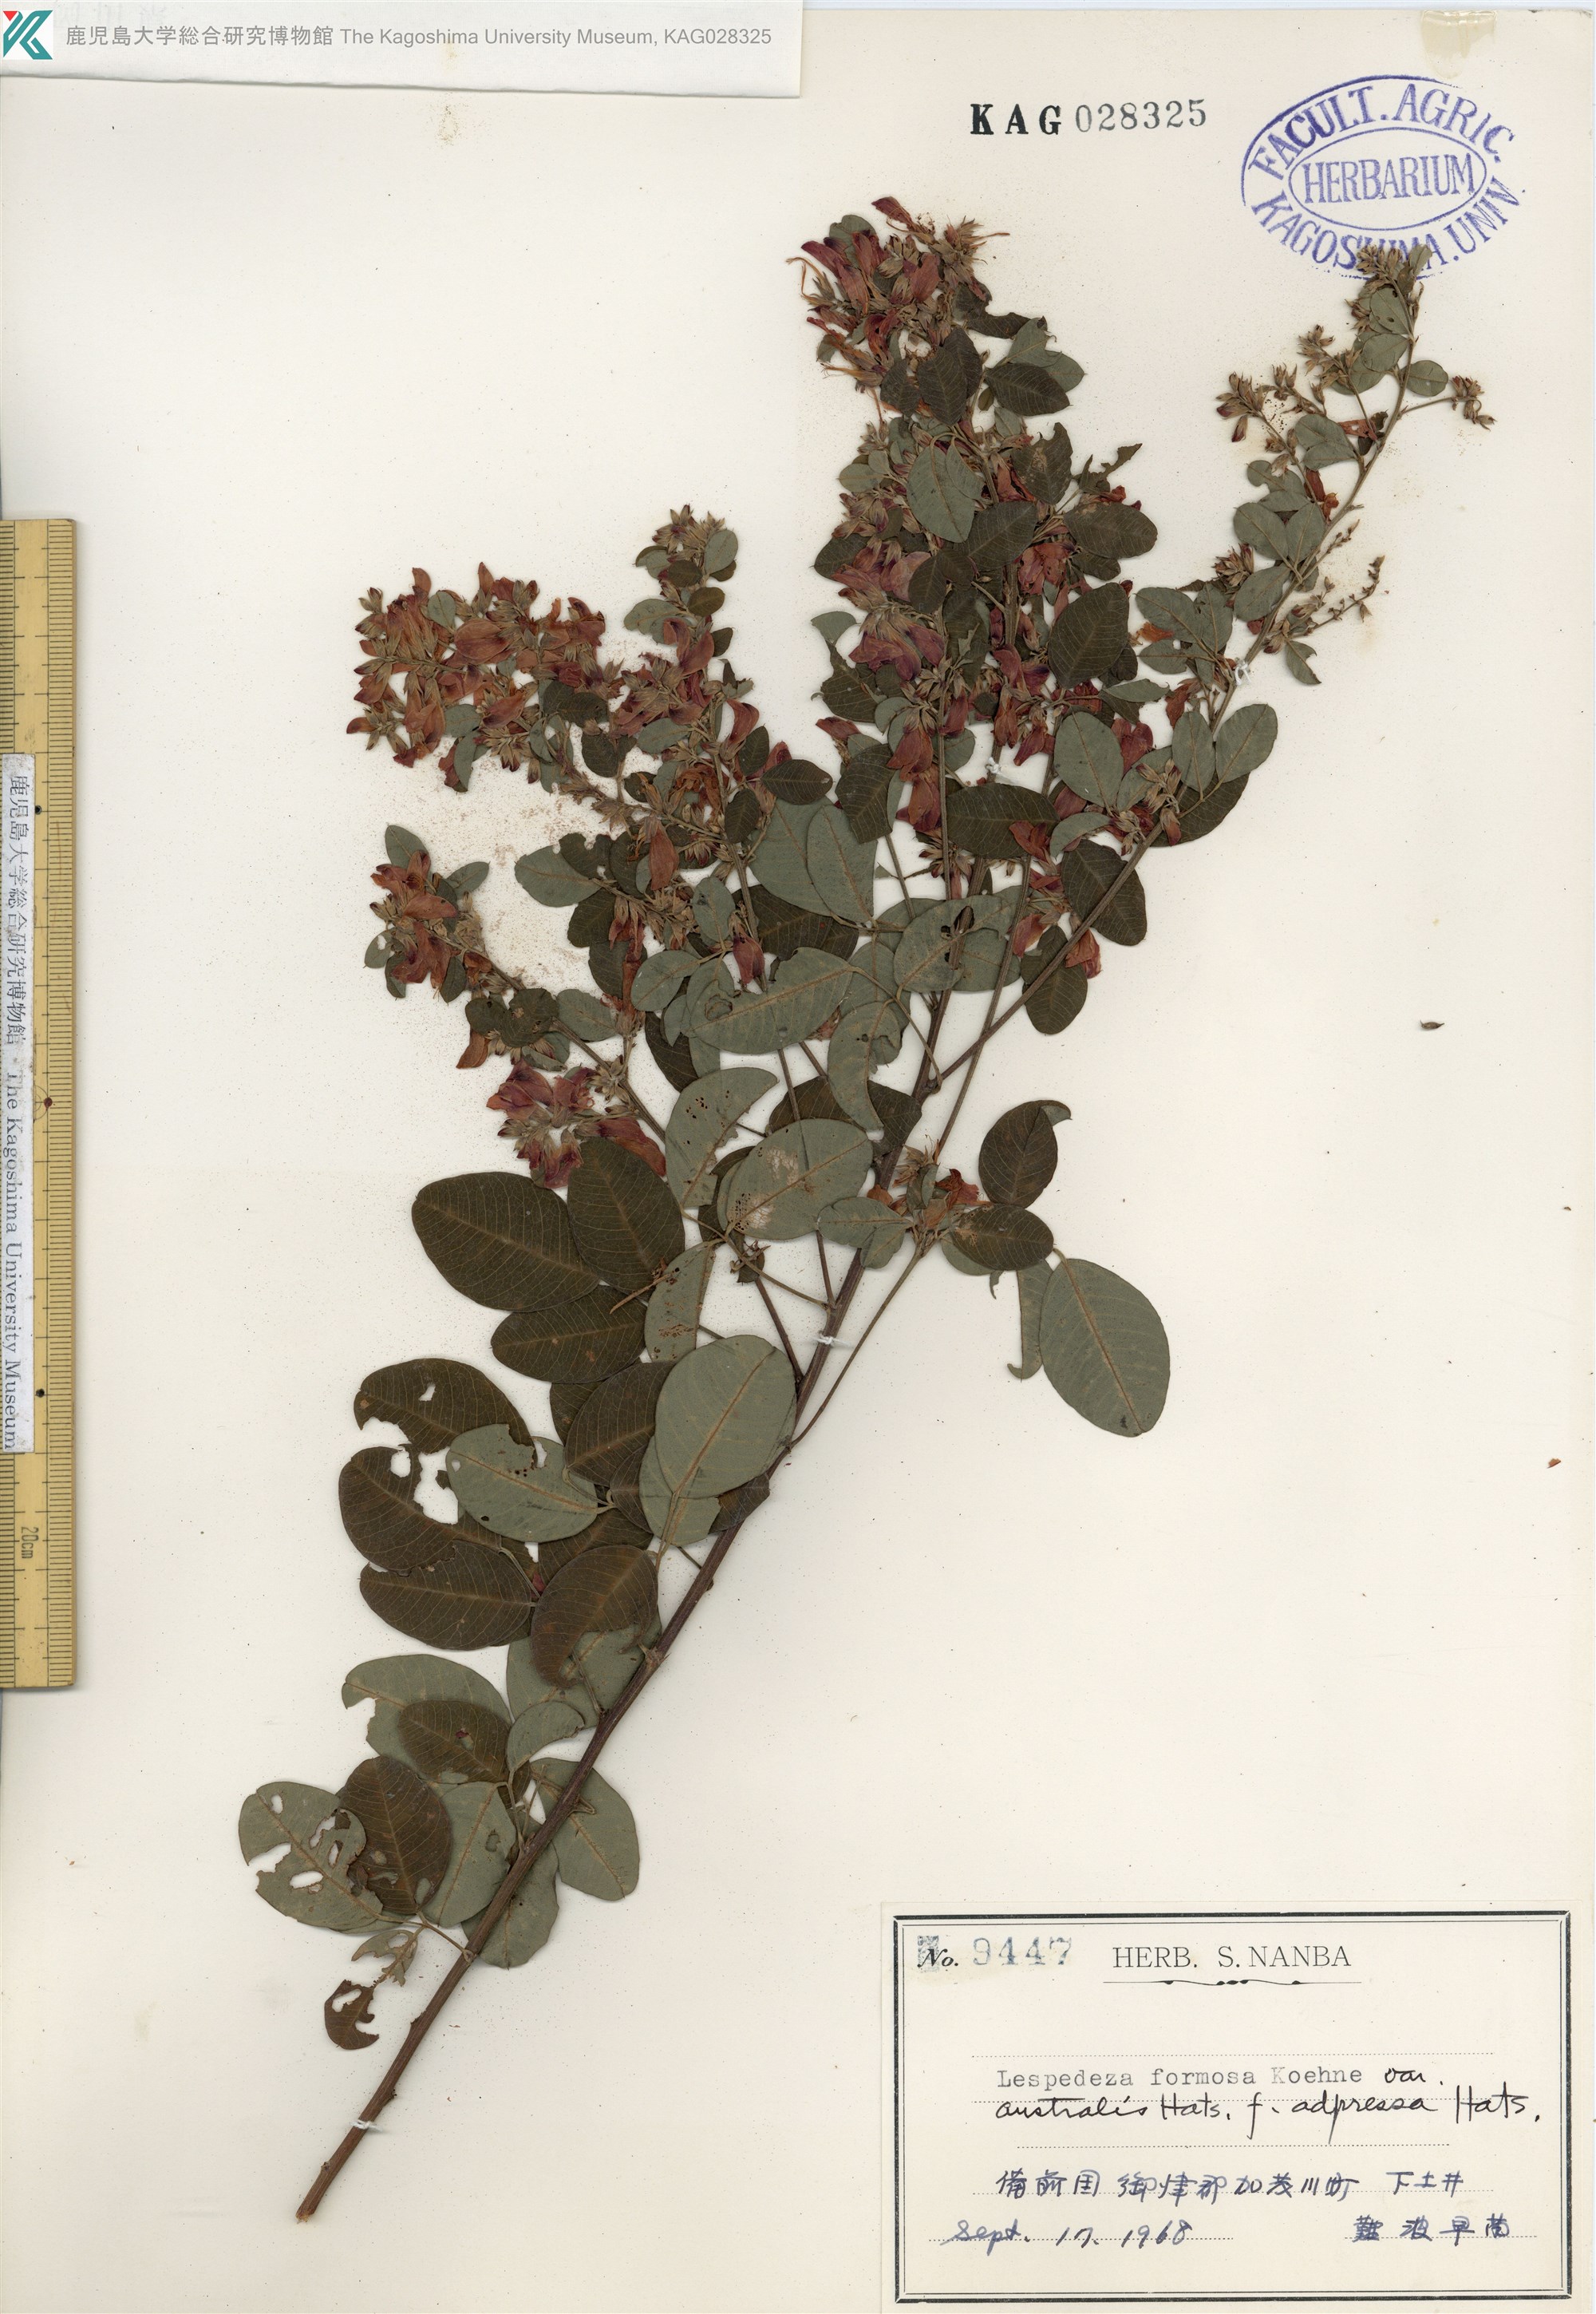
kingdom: Plantae
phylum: Tracheophyta
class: Magnoliopsida
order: Fabales
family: Fabaceae
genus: Lespedeza
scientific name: Lespedeza thunbergii
